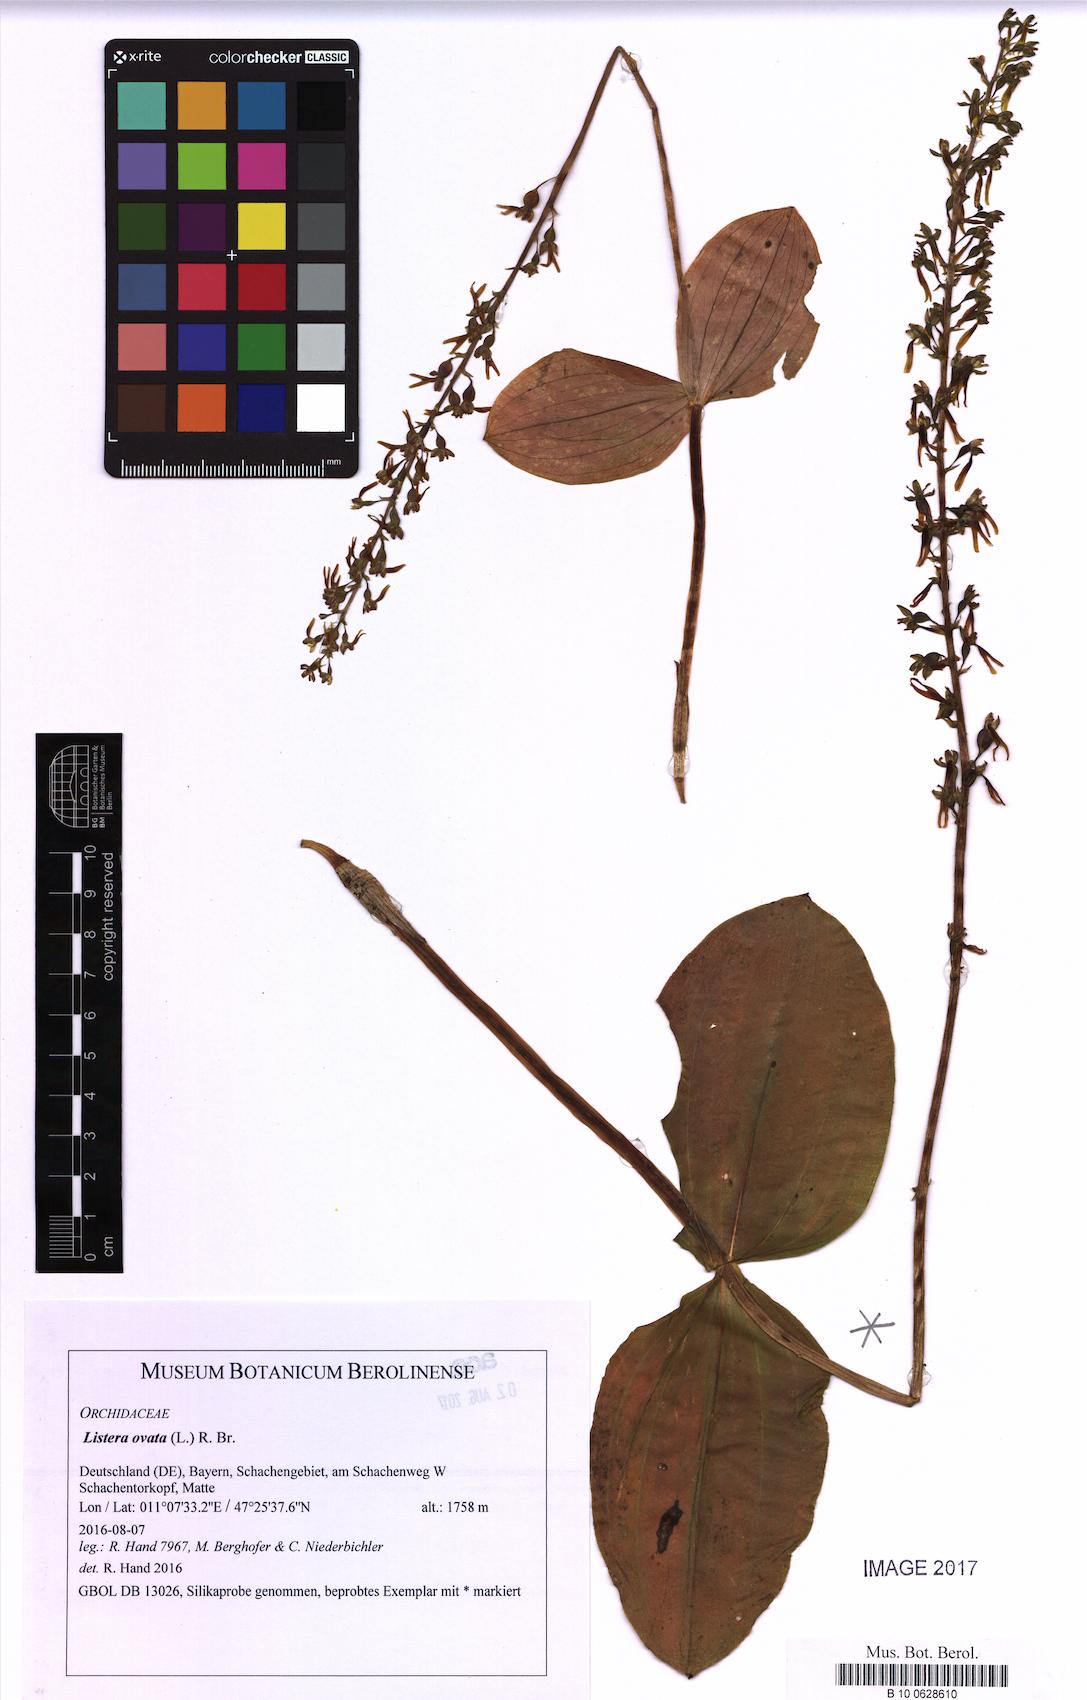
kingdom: Plantae
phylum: Tracheophyta
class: Liliopsida
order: Asparagales
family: Orchidaceae
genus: Neottia
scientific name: Neottia ovata
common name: Common twayblade
